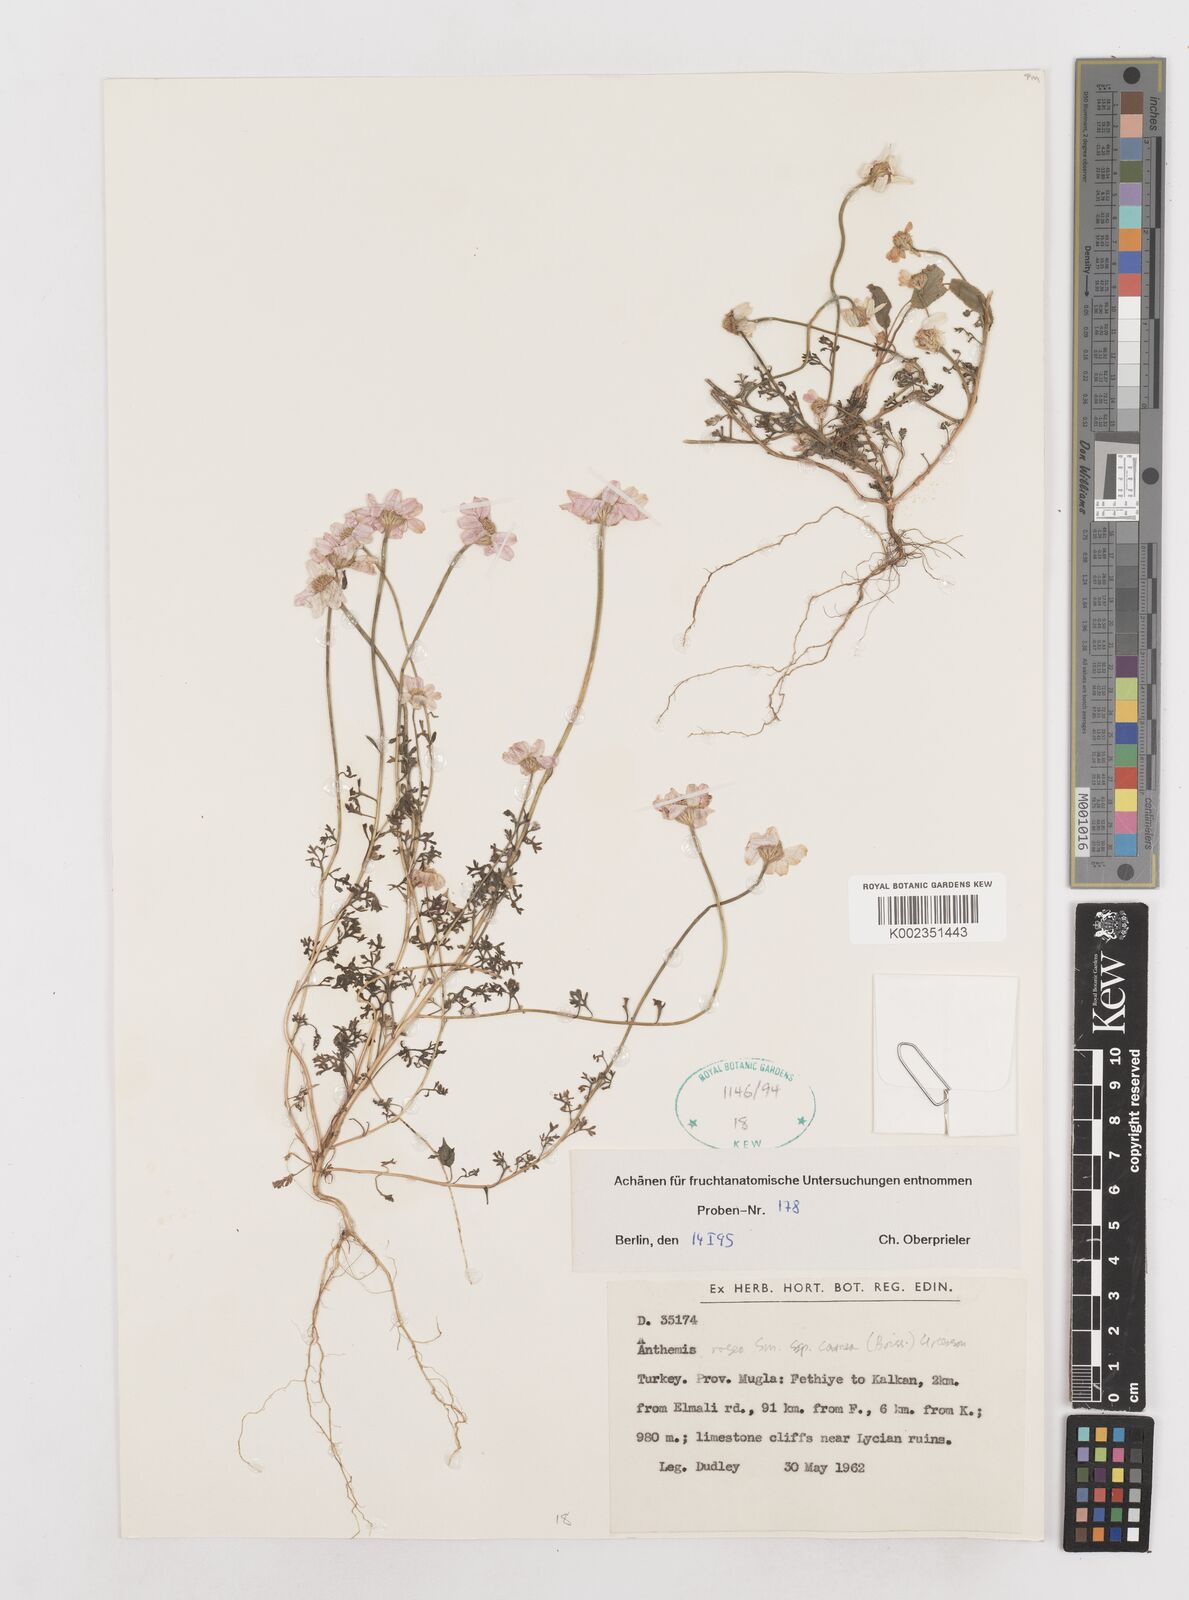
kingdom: Plantae
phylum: Tracheophyta
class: Magnoliopsida
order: Asterales
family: Asteraceae
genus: Anthemis
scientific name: Anthemis rosea
